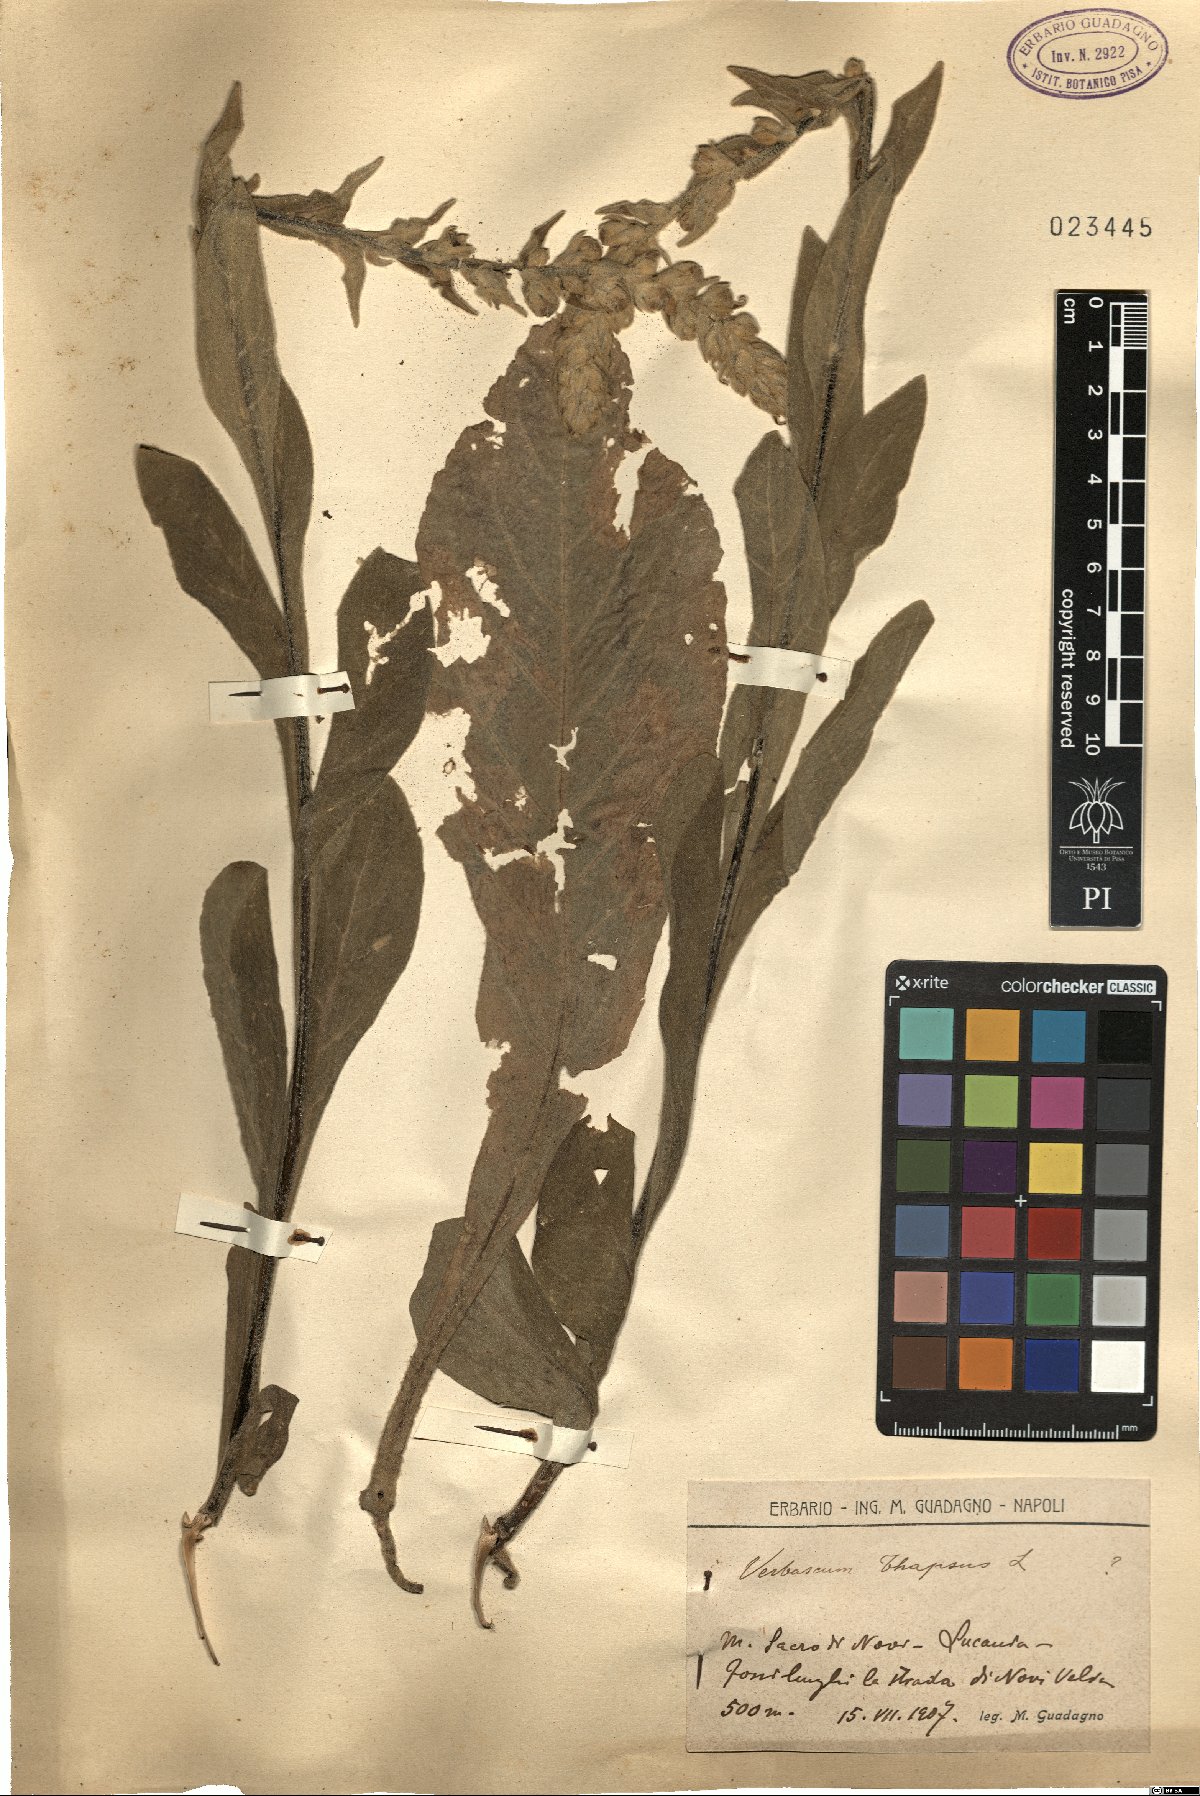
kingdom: Plantae
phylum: Tracheophyta
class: Magnoliopsida
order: Lamiales
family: Scrophulariaceae
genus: Verbascum
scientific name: Verbascum thapsus
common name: Common mullein
